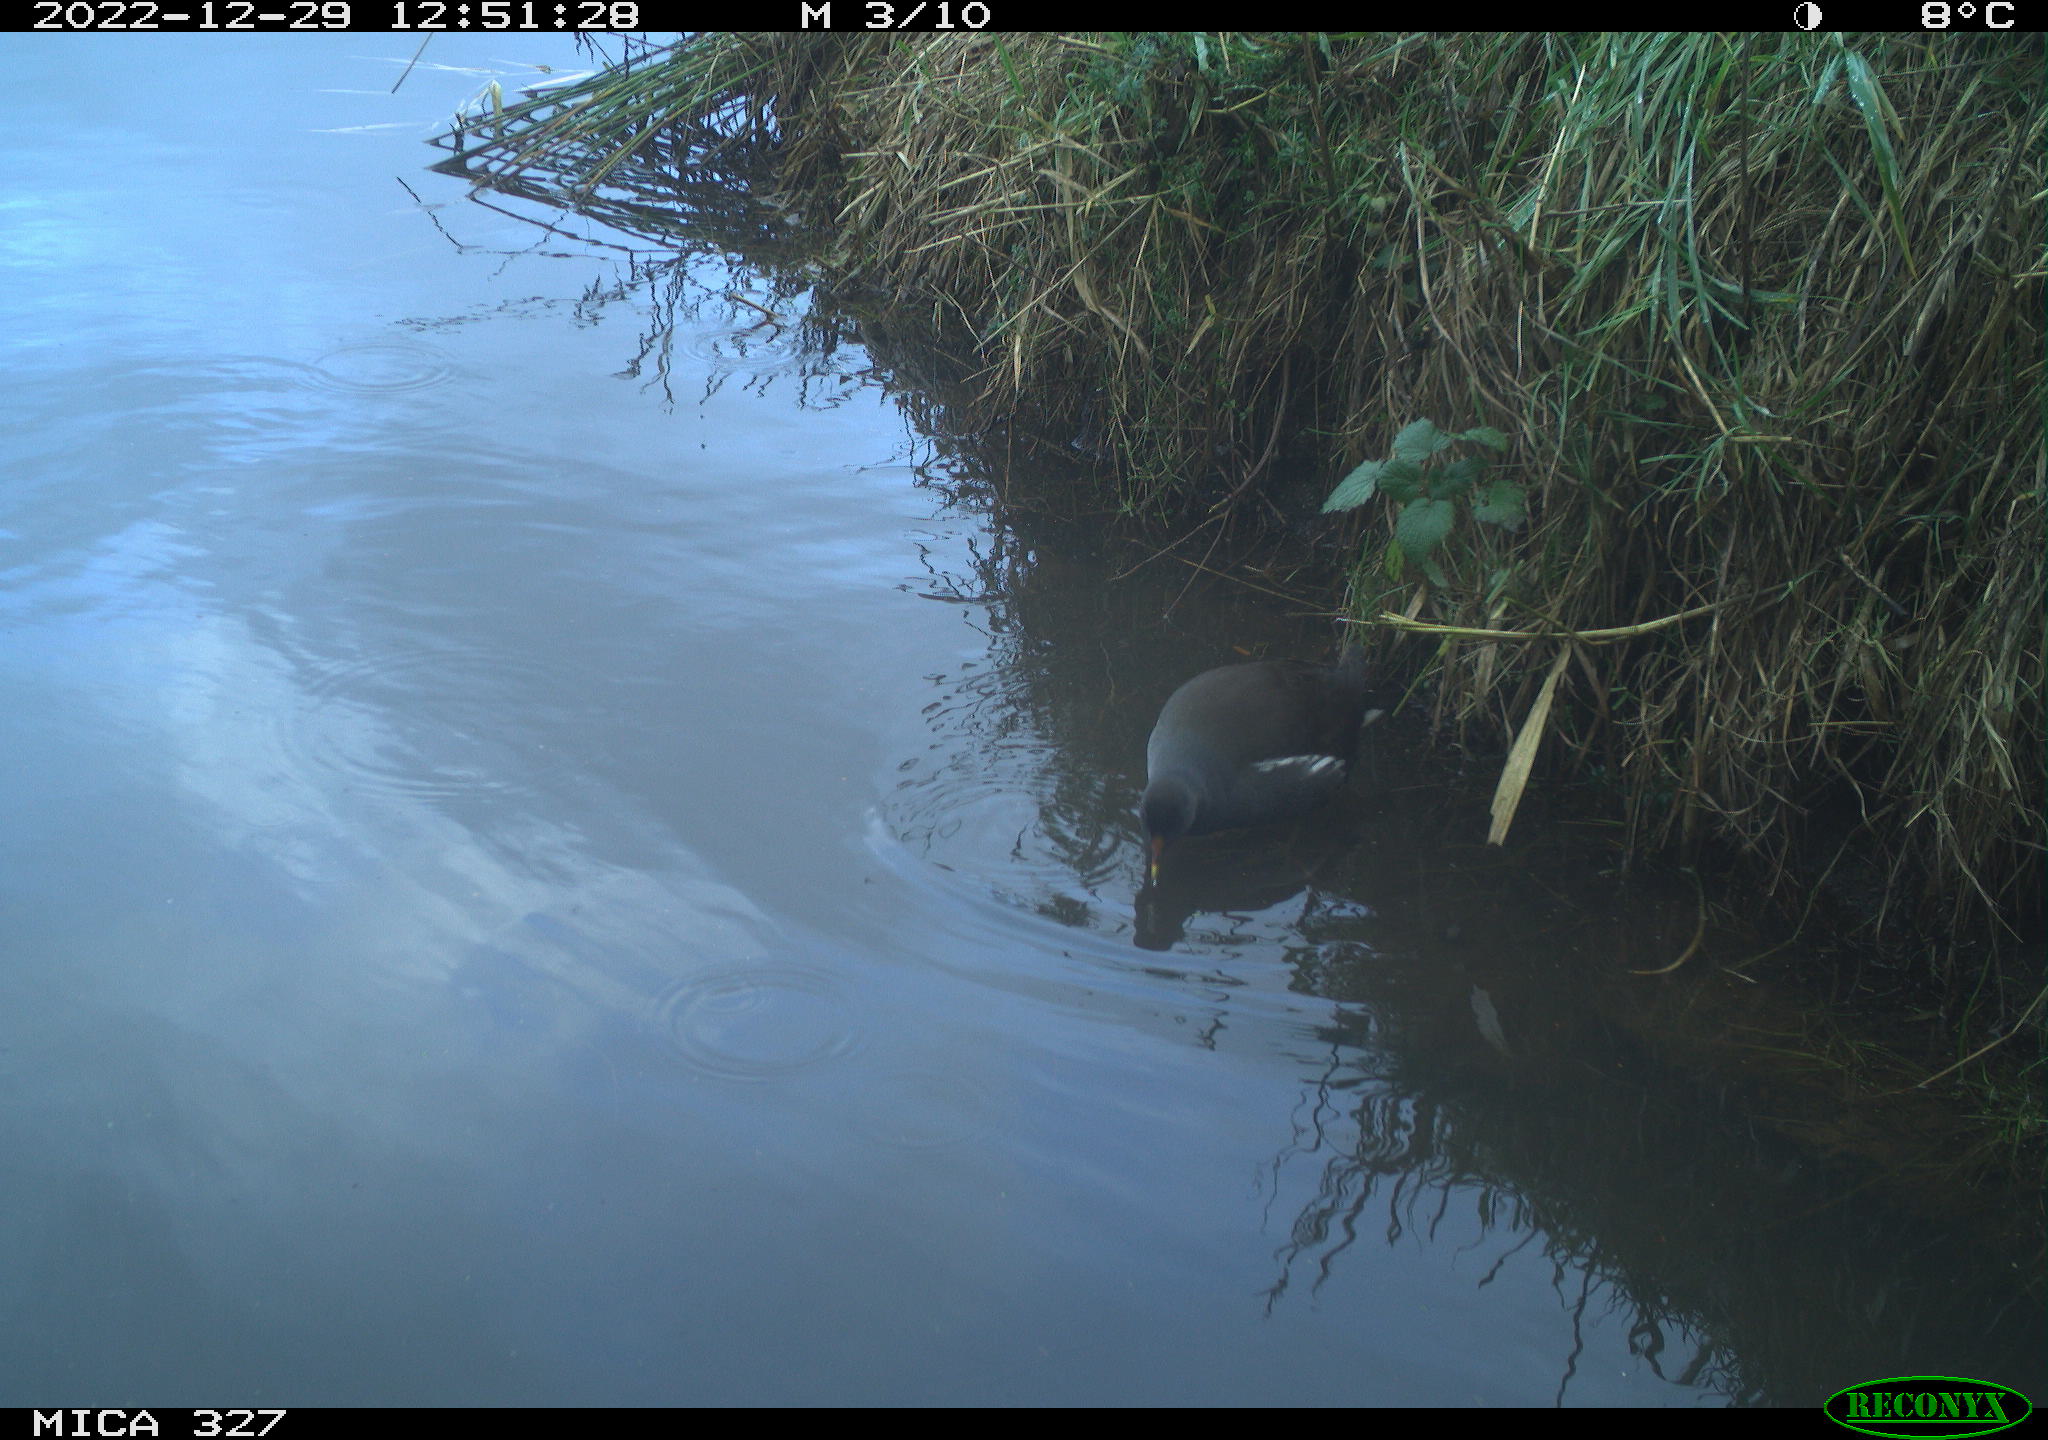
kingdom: Animalia
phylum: Chordata
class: Aves
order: Gruiformes
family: Rallidae
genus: Gallinula
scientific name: Gallinula chloropus
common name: Common moorhen
